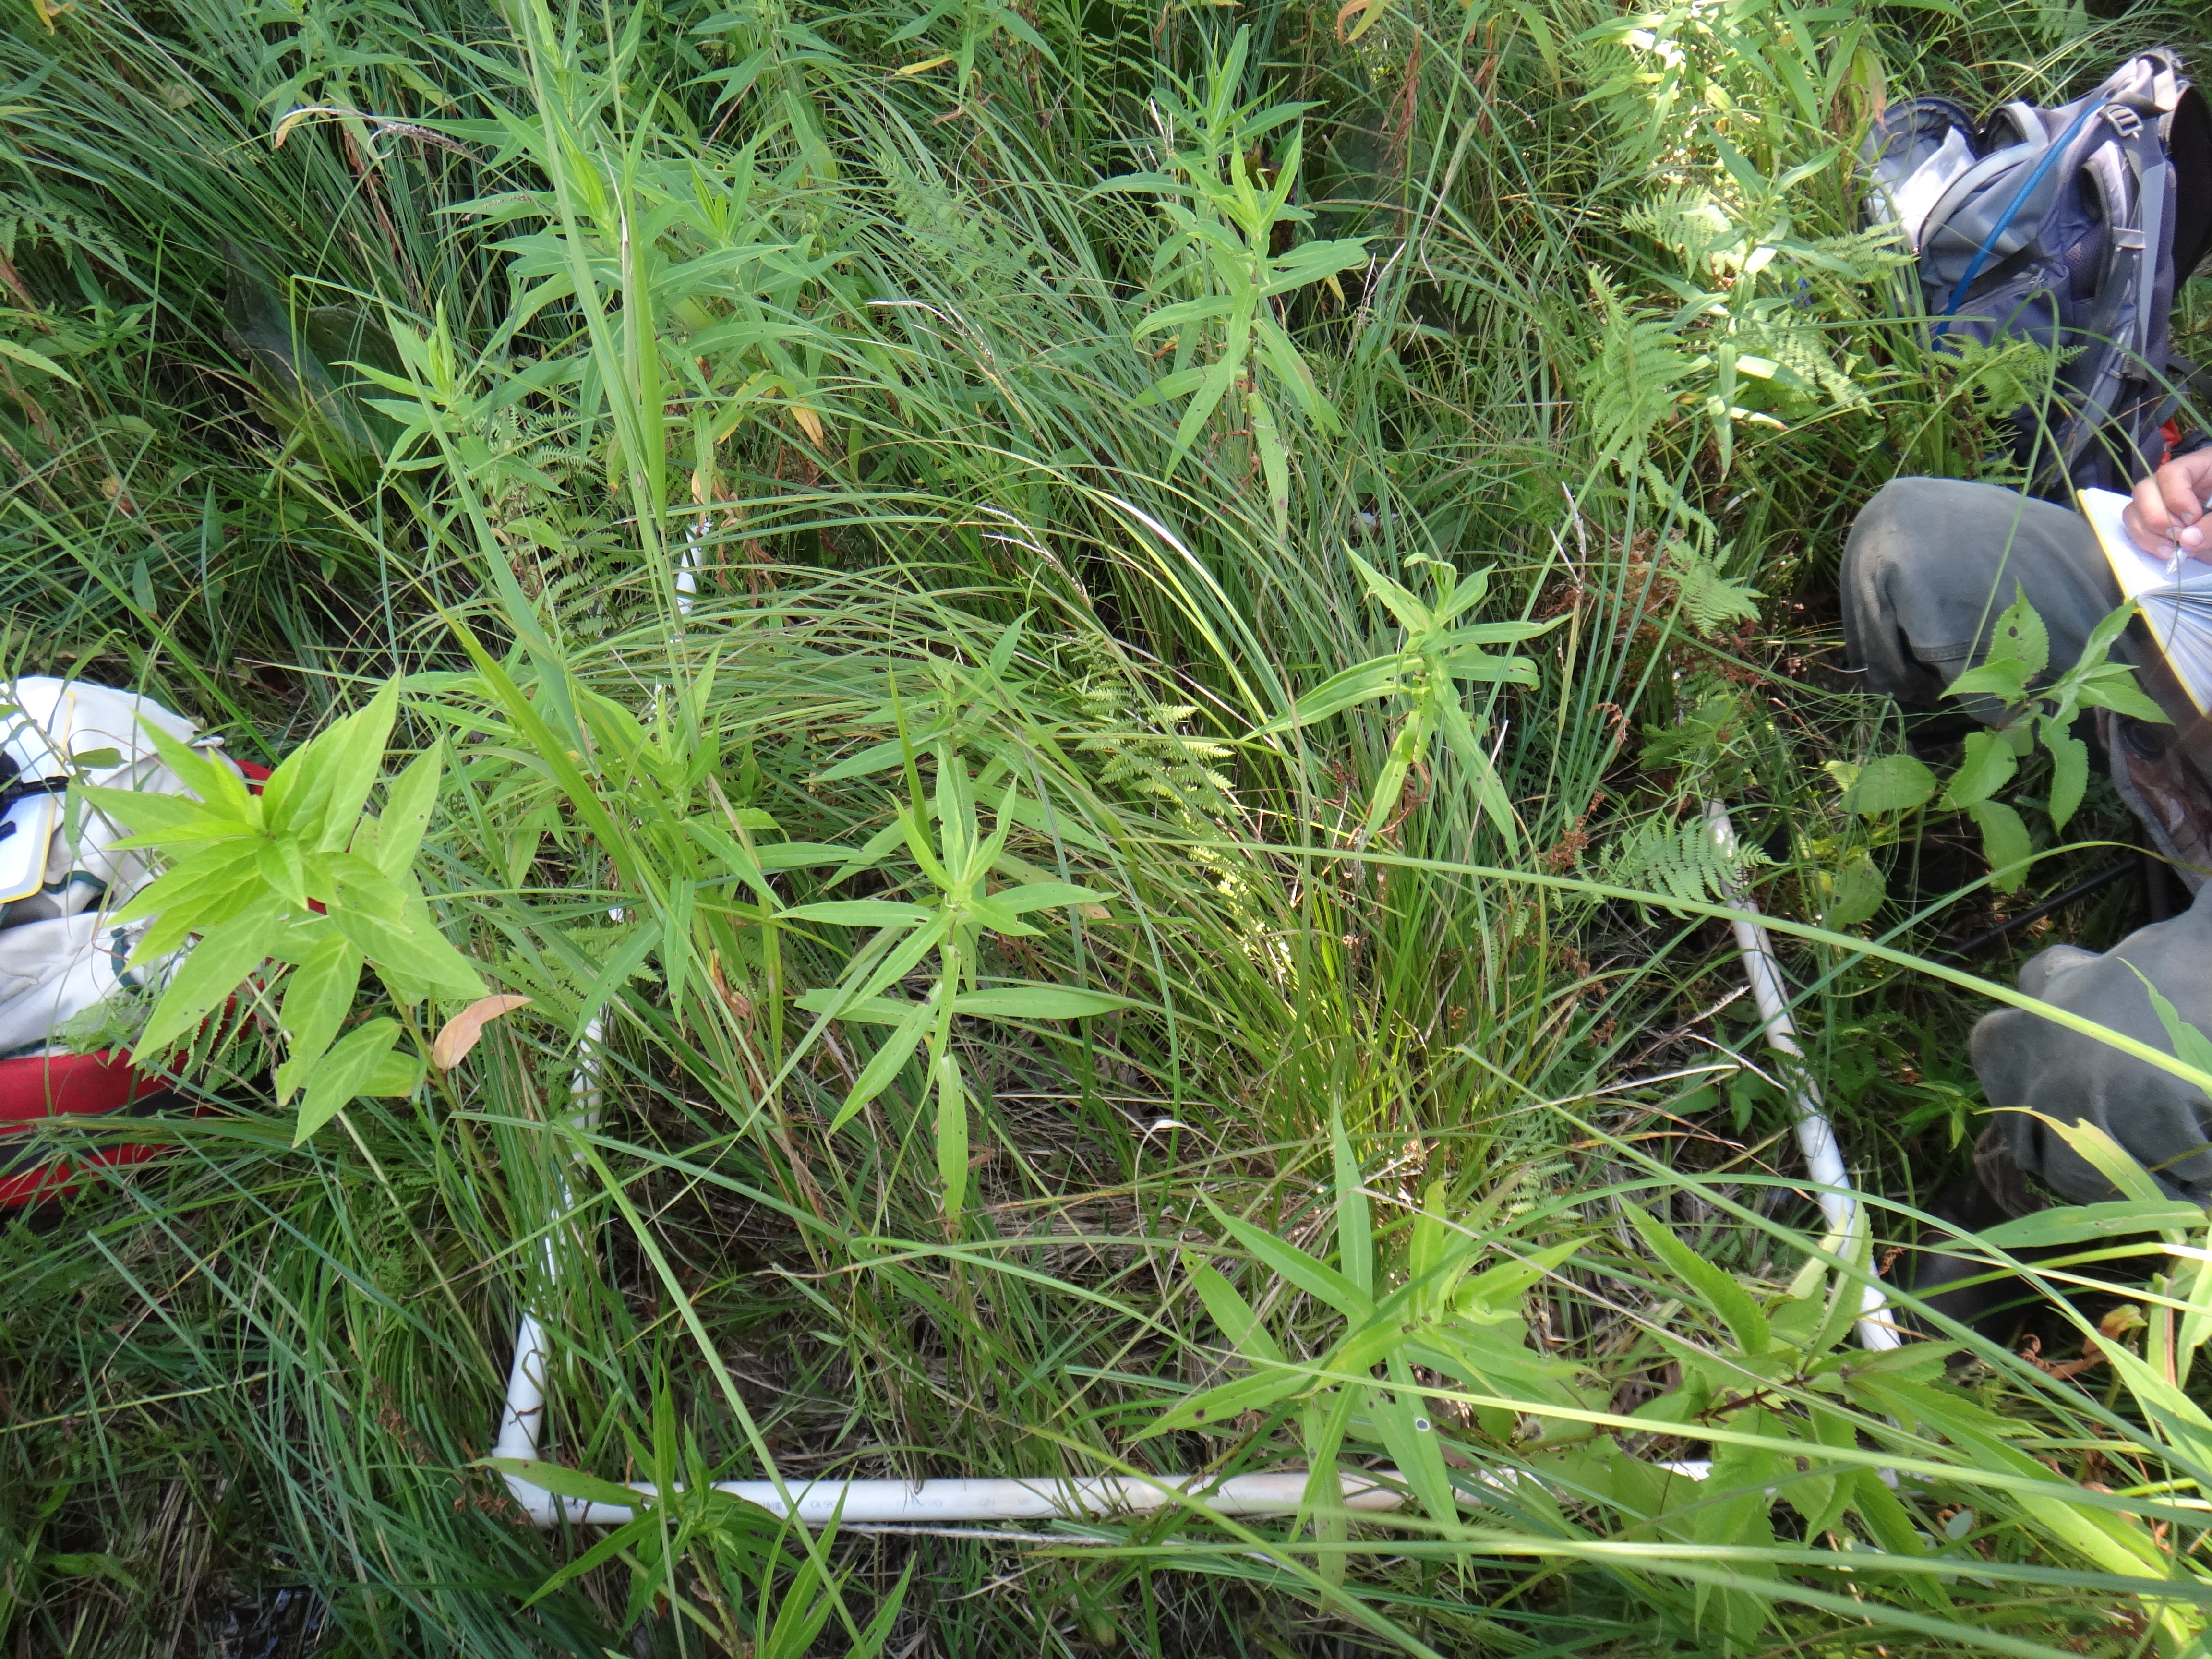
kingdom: Plantae
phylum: Tracheophyta
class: Polypodiopsida
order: Polypodiales
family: Thelypteridaceae
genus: Thelypteris
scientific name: Thelypteris palustris
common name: Marsh fern
